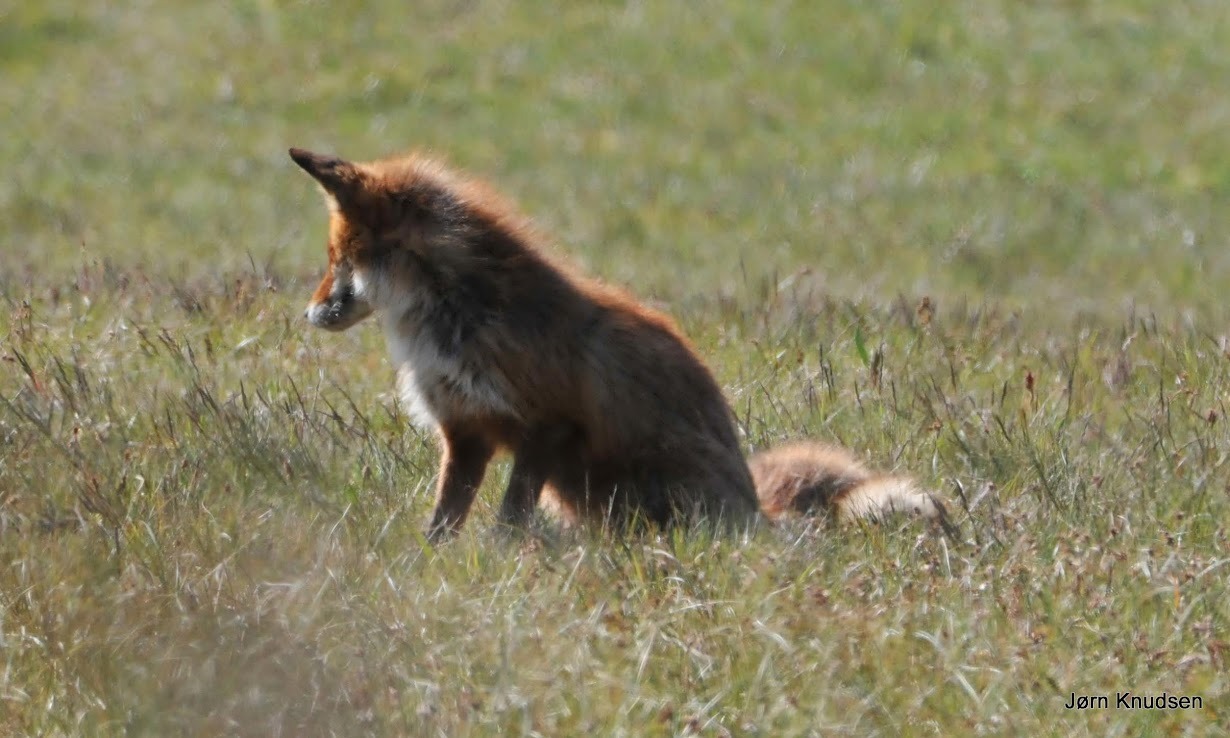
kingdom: Animalia
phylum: Chordata
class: Mammalia
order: Carnivora
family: Canidae
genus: Vulpes
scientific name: Vulpes vulpes
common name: Ræv
